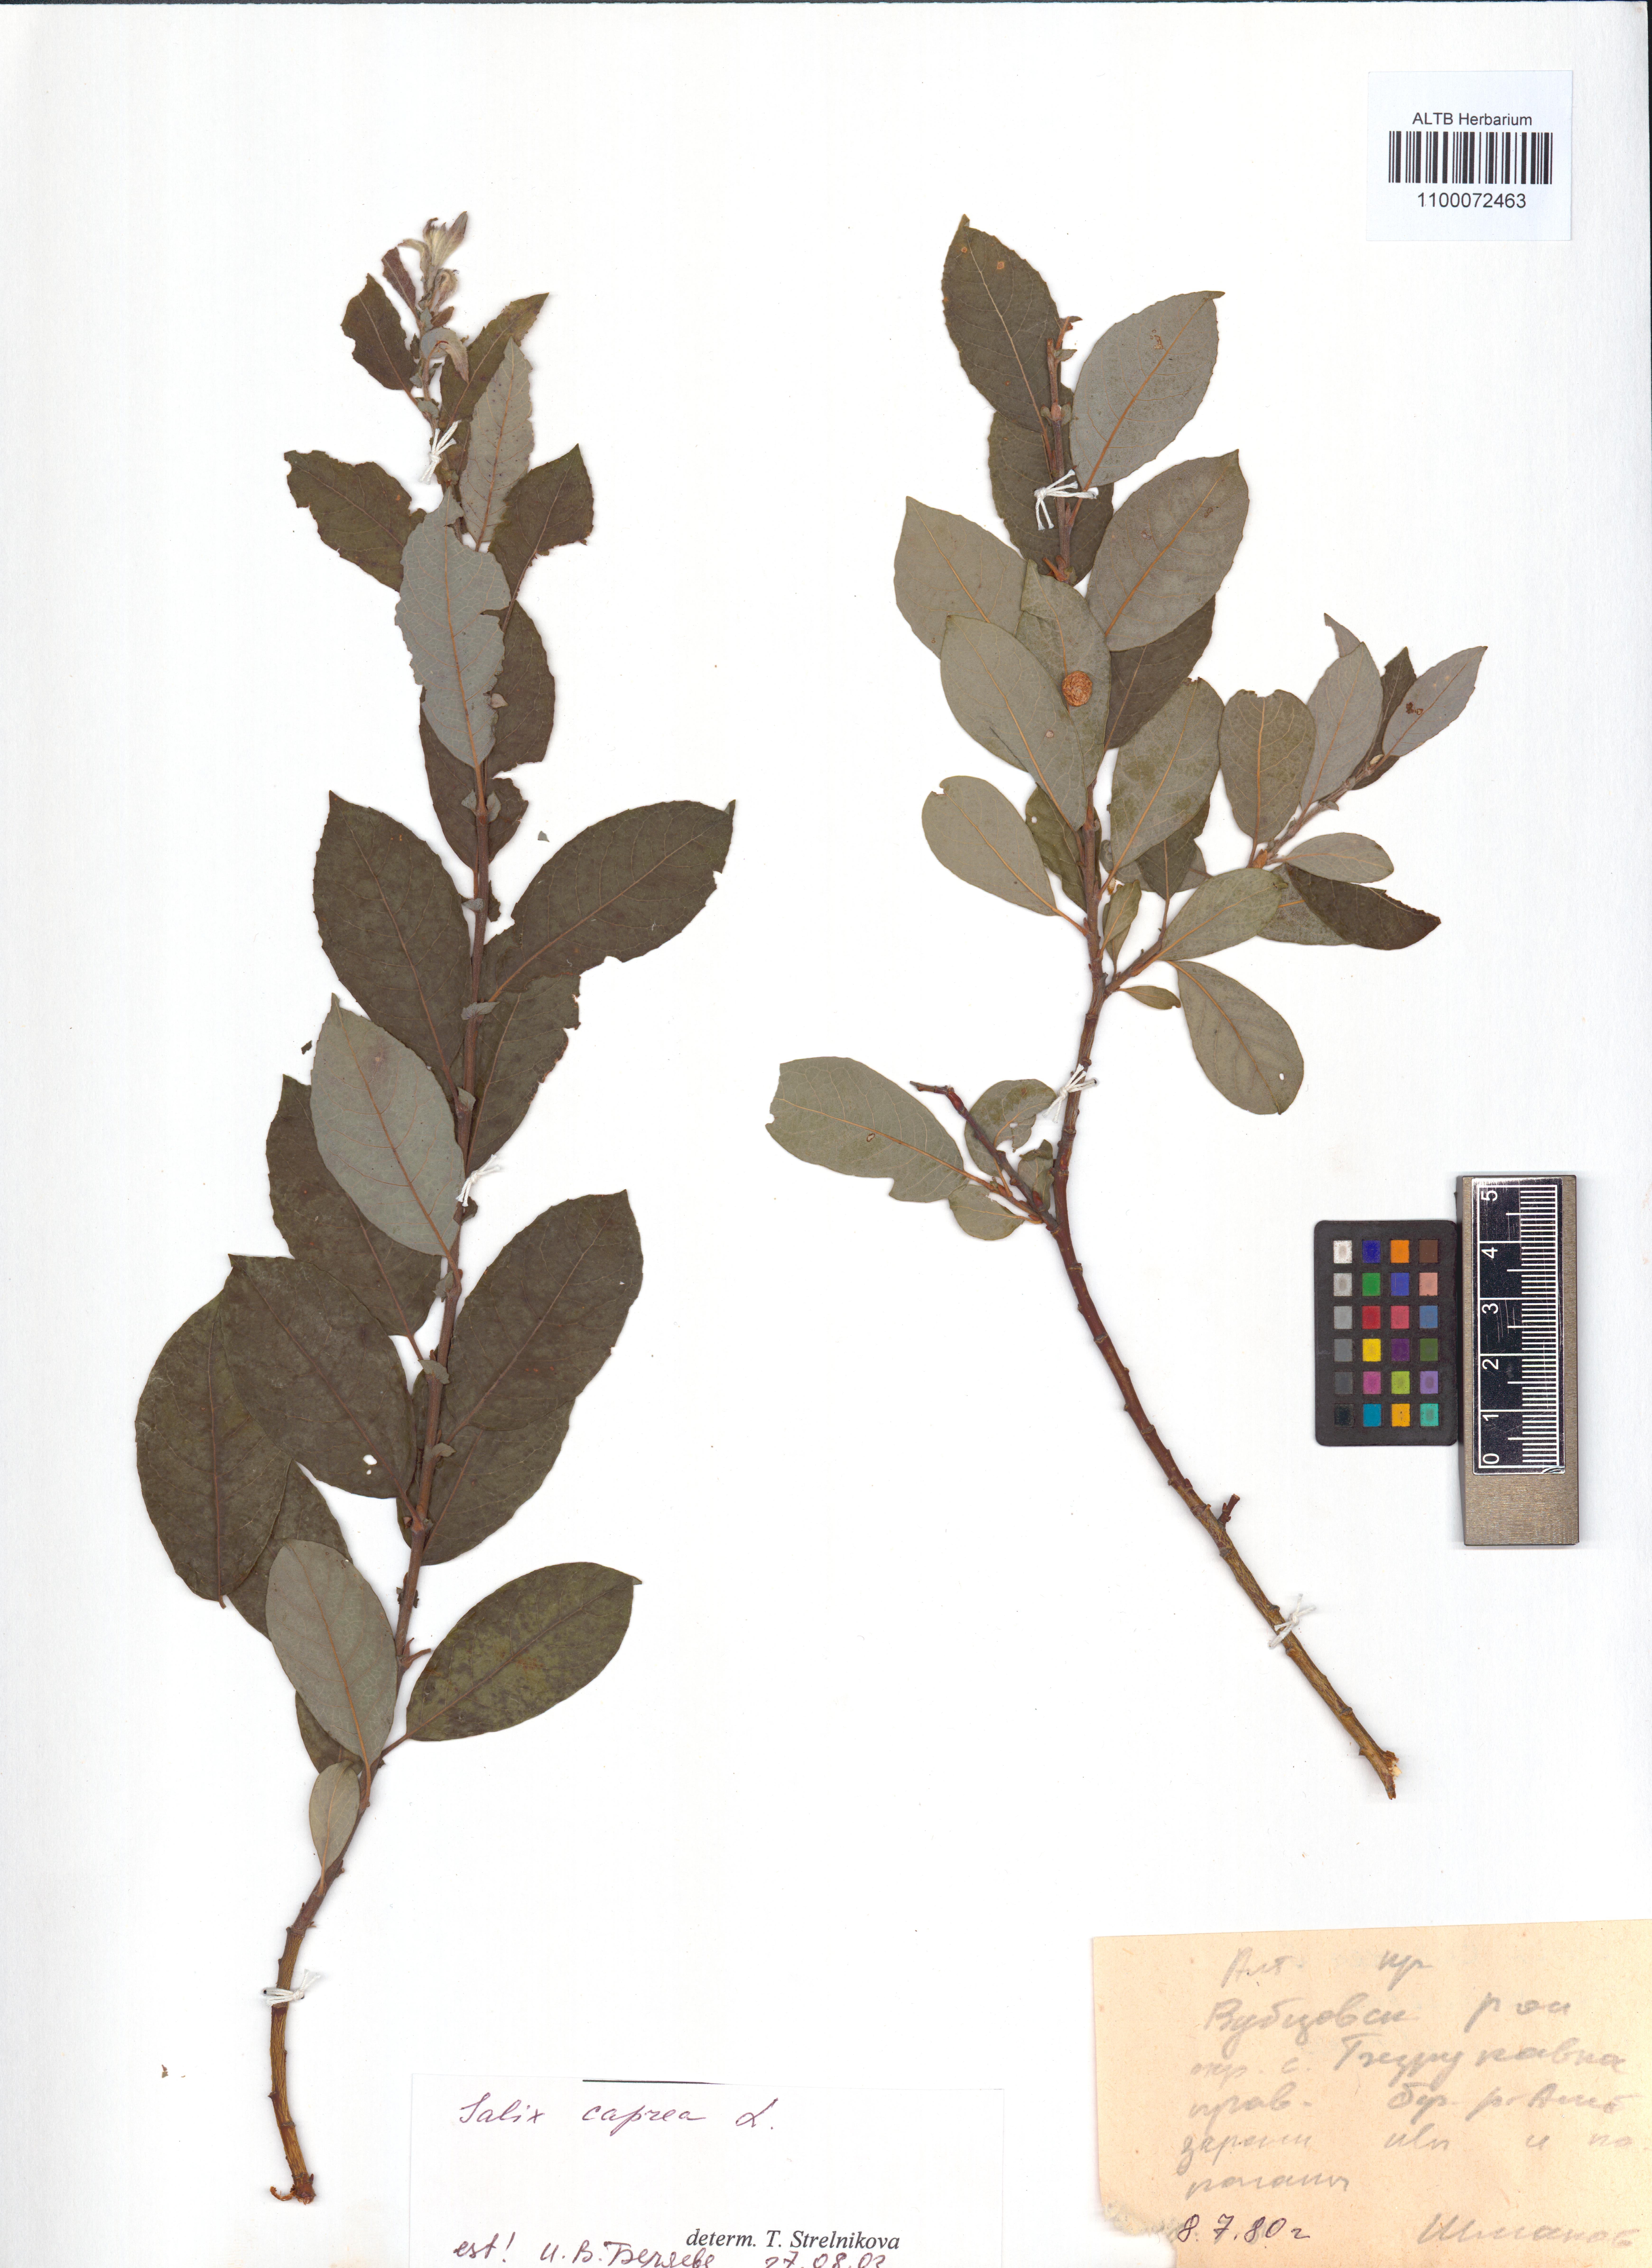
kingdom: Plantae
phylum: Tracheophyta
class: Magnoliopsida
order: Malpighiales
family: Salicaceae
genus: Salix
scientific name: Salix caprea
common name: Goat willow
